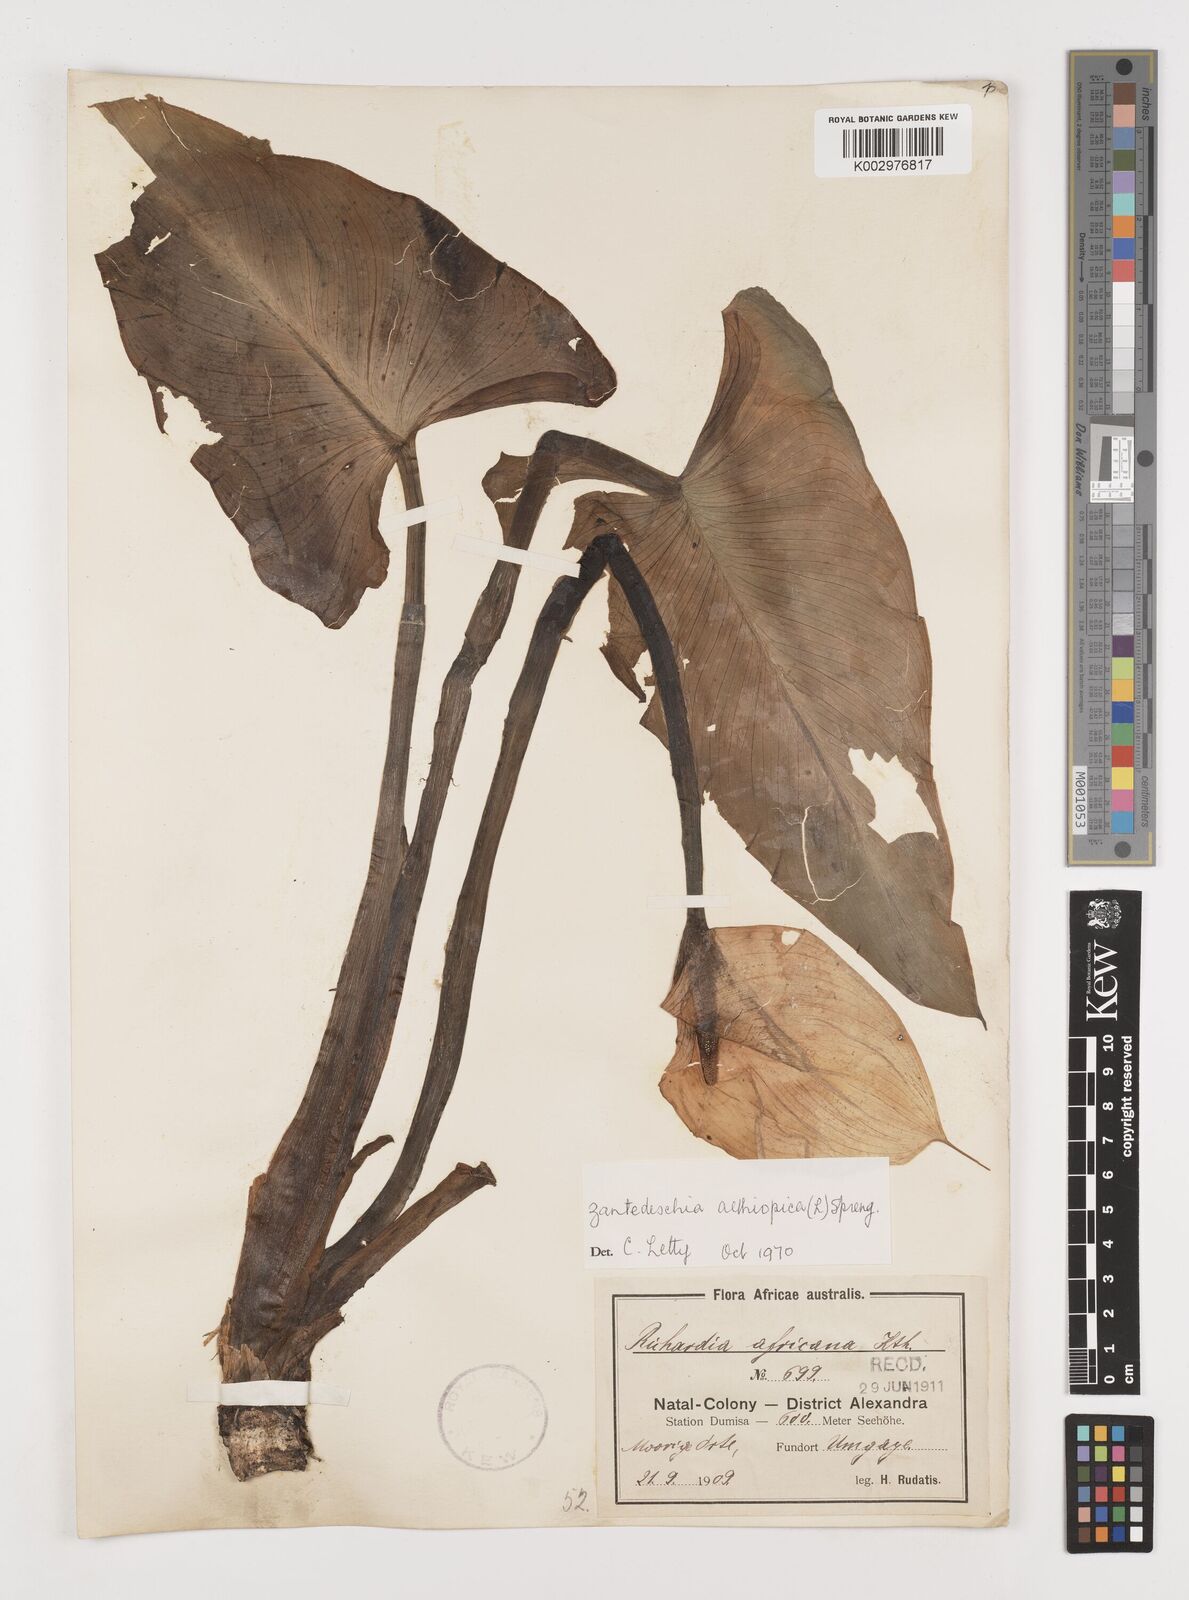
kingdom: Plantae
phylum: Tracheophyta
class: Liliopsida
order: Alismatales
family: Araceae
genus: Zantedeschia
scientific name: Zantedeschia aethiopica
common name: Altar-lily
